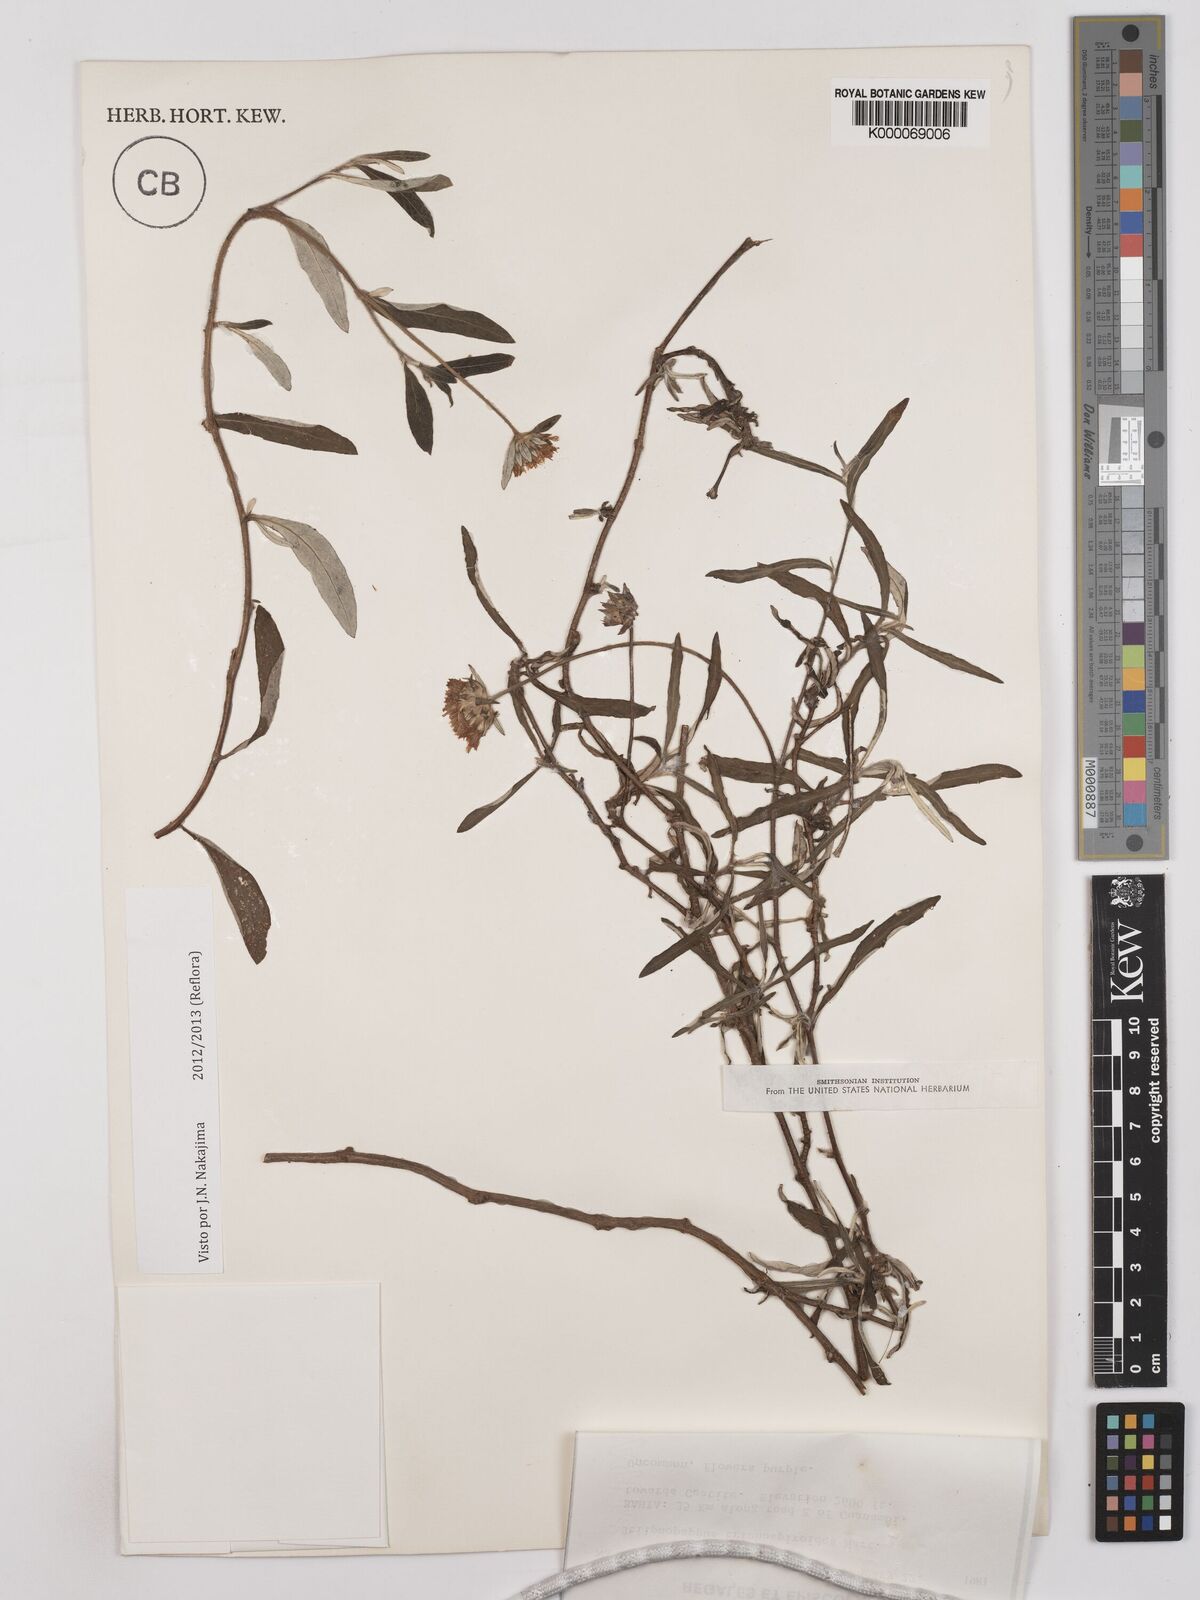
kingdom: Plantae
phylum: Tracheophyta
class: Magnoliopsida
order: Asterales
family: Asteraceae
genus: Stilpnopappus
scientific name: Stilpnopappus
